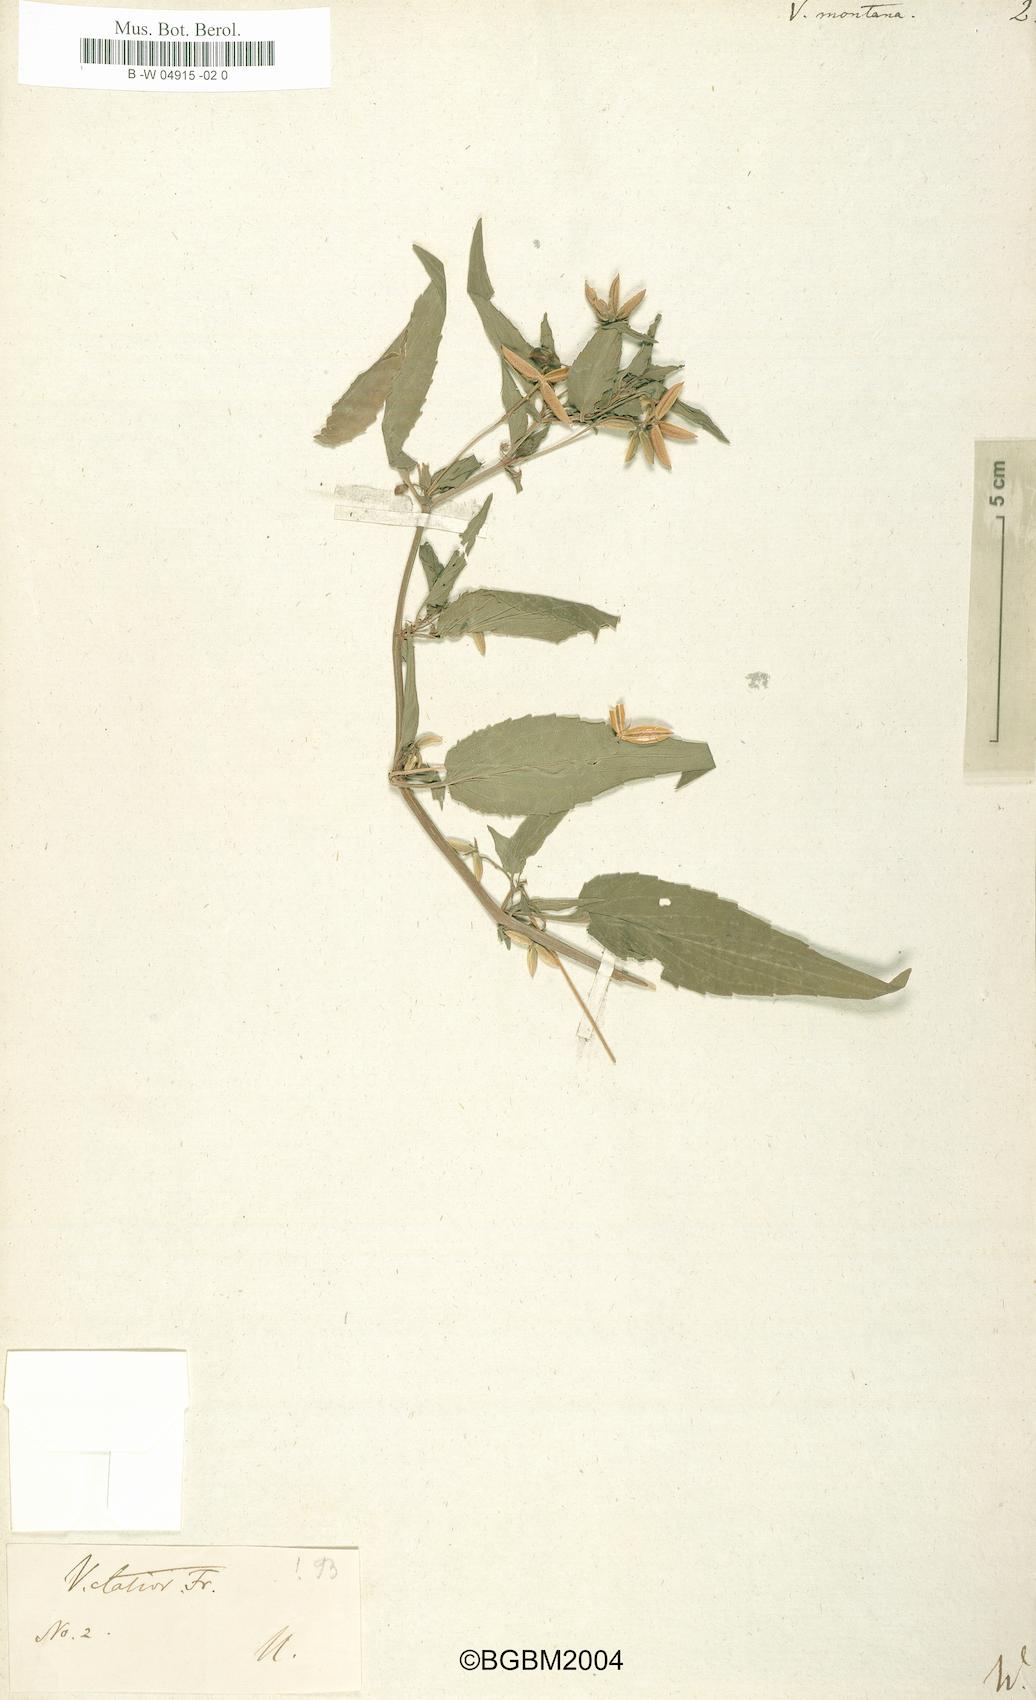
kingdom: Plantae
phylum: Tracheophyta
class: Magnoliopsida
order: Malpighiales
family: Violaceae
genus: Viola
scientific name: Viola
